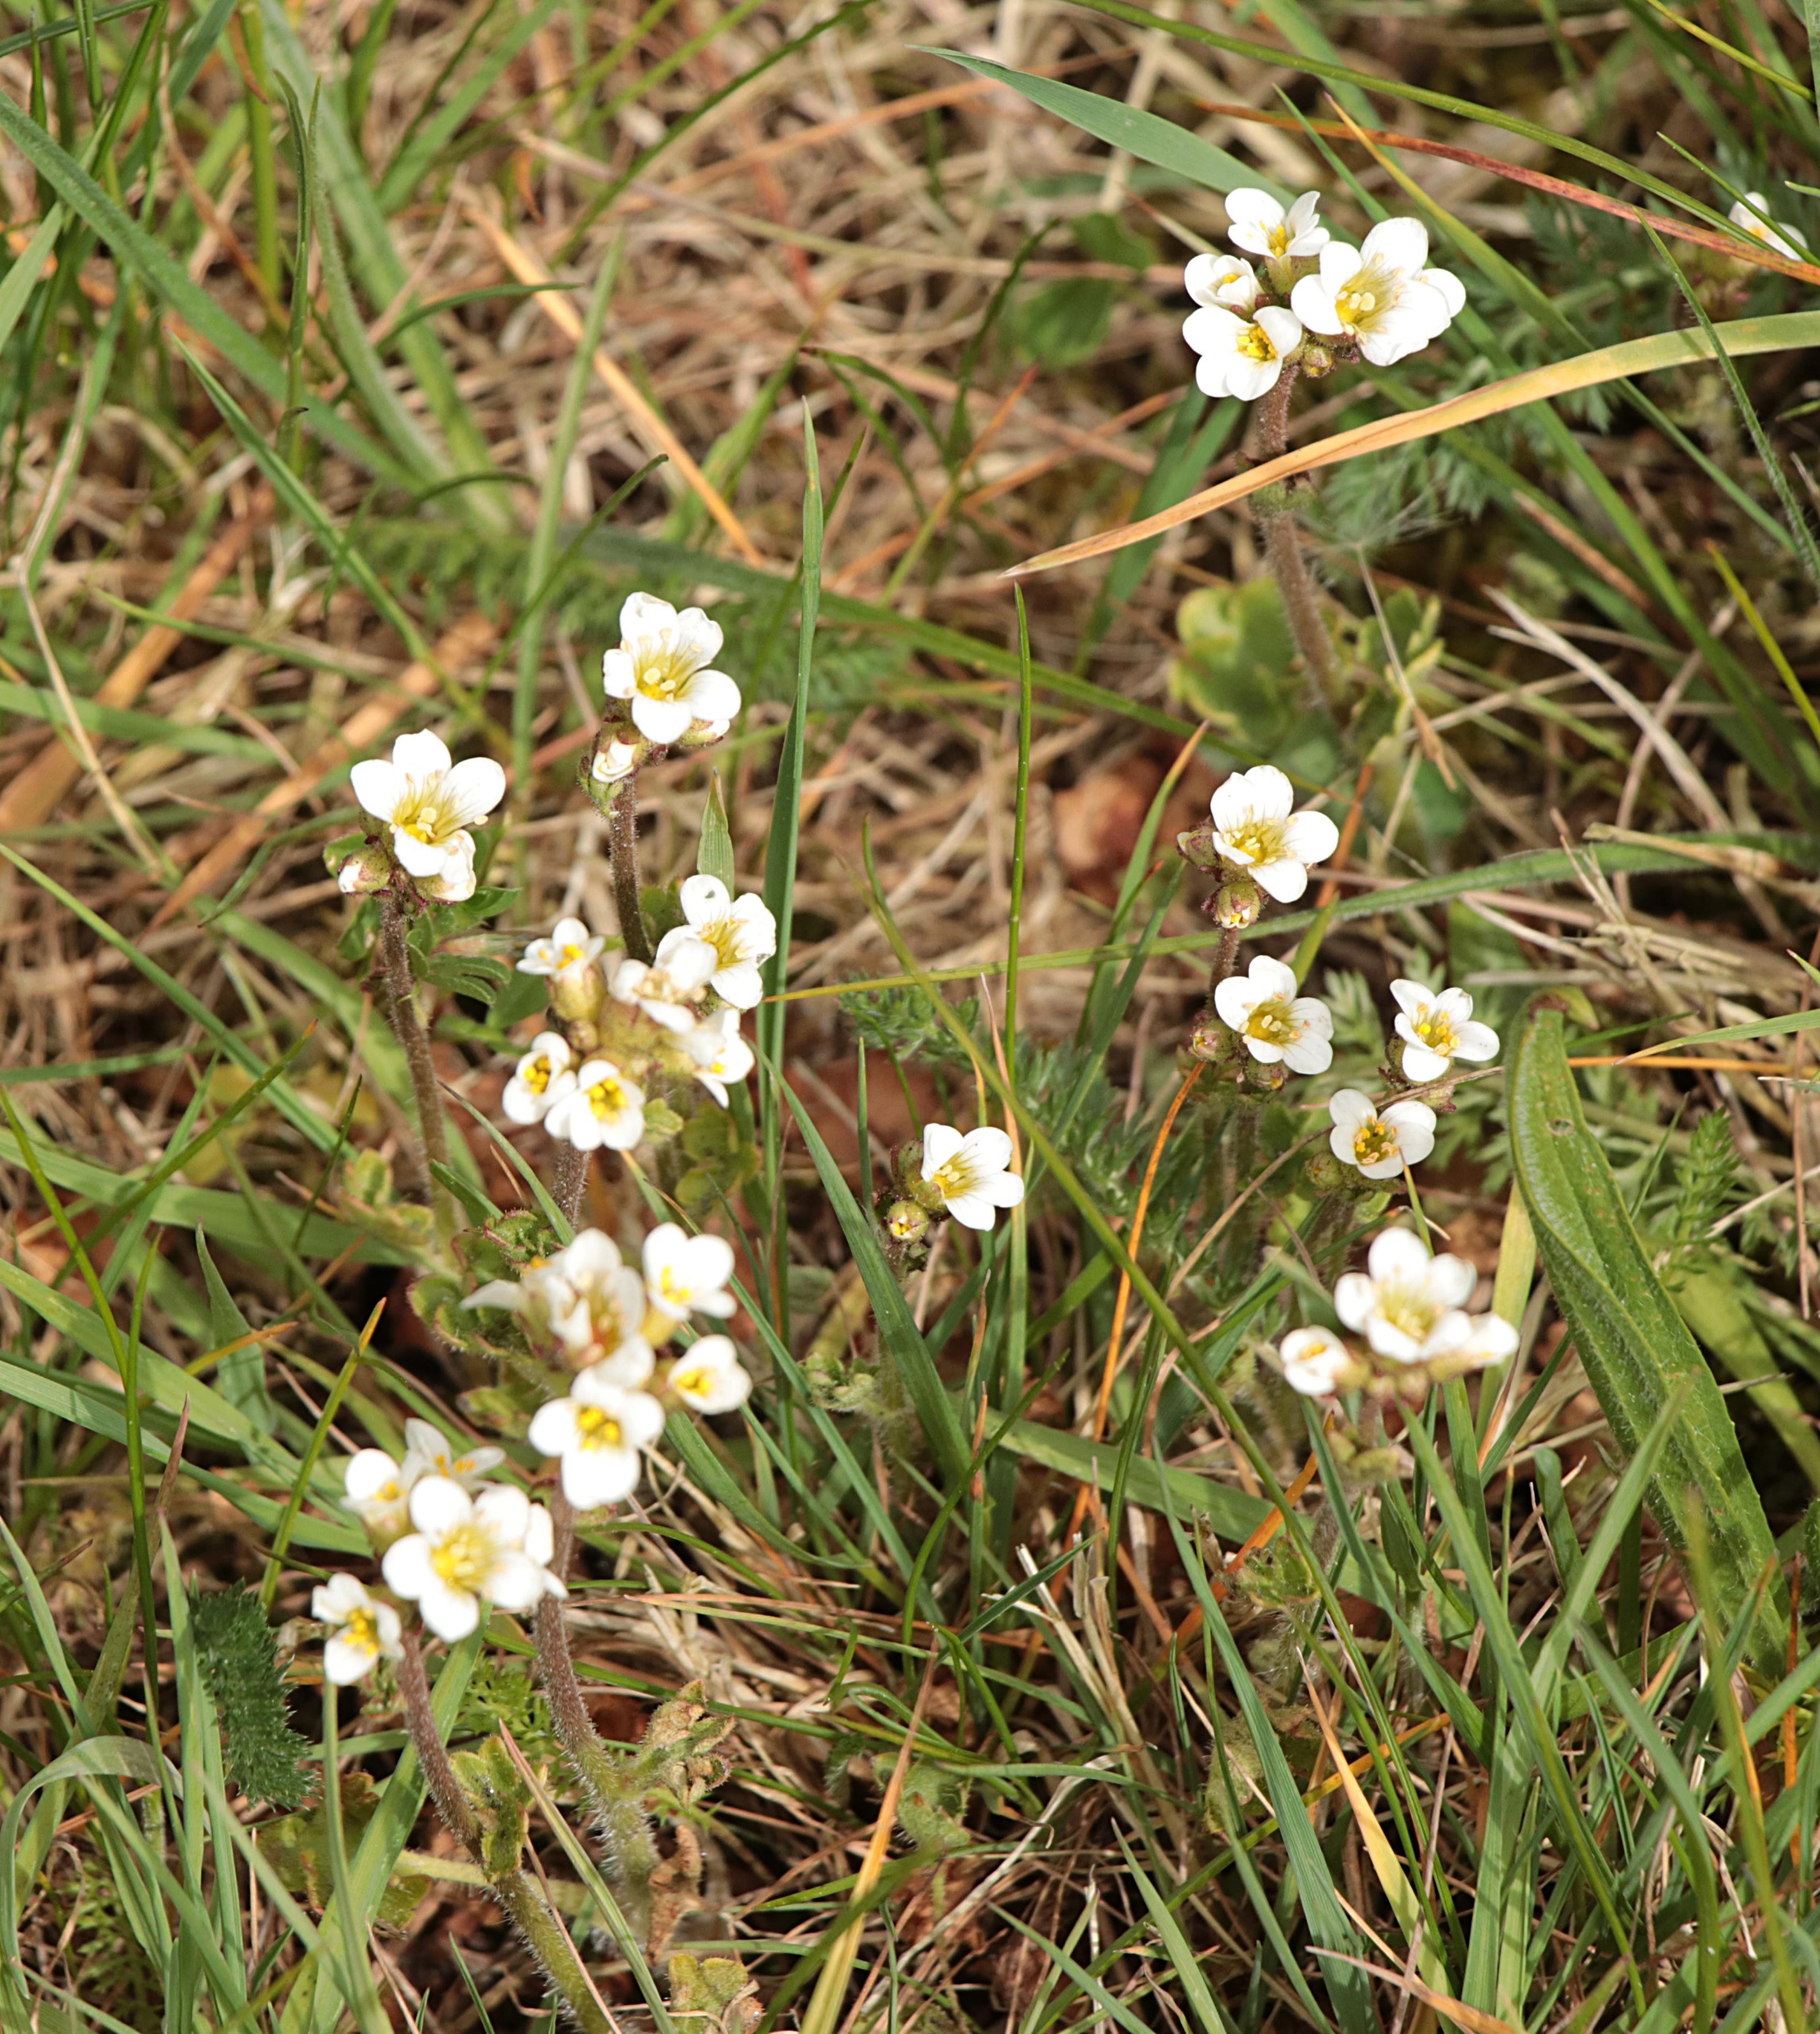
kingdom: Plantae
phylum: Tracheophyta
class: Magnoliopsida
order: Saxifragales
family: Saxifragaceae
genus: Saxifraga
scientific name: Saxifraga granulata
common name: Kornet stenbræk
